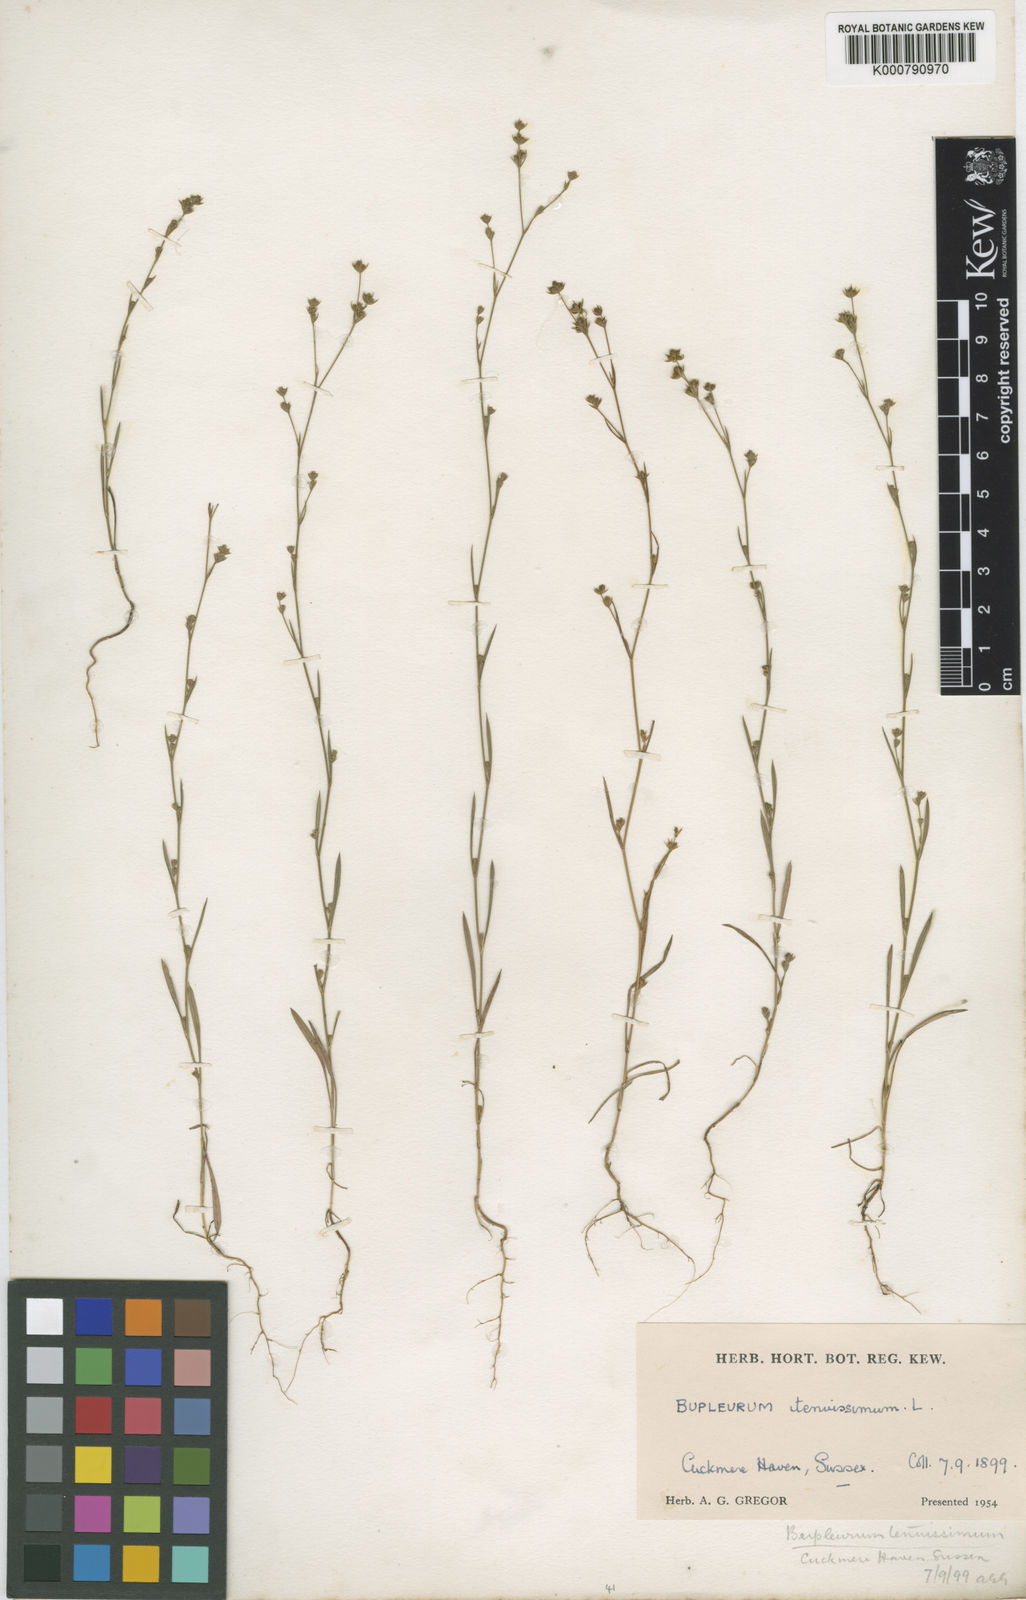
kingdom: Plantae
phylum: Tracheophyta
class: Magnoliopsida
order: Apiales
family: Apiaceae
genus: Bupleurum
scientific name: Bupleurum tenuissimum
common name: Slender hare's-ear
